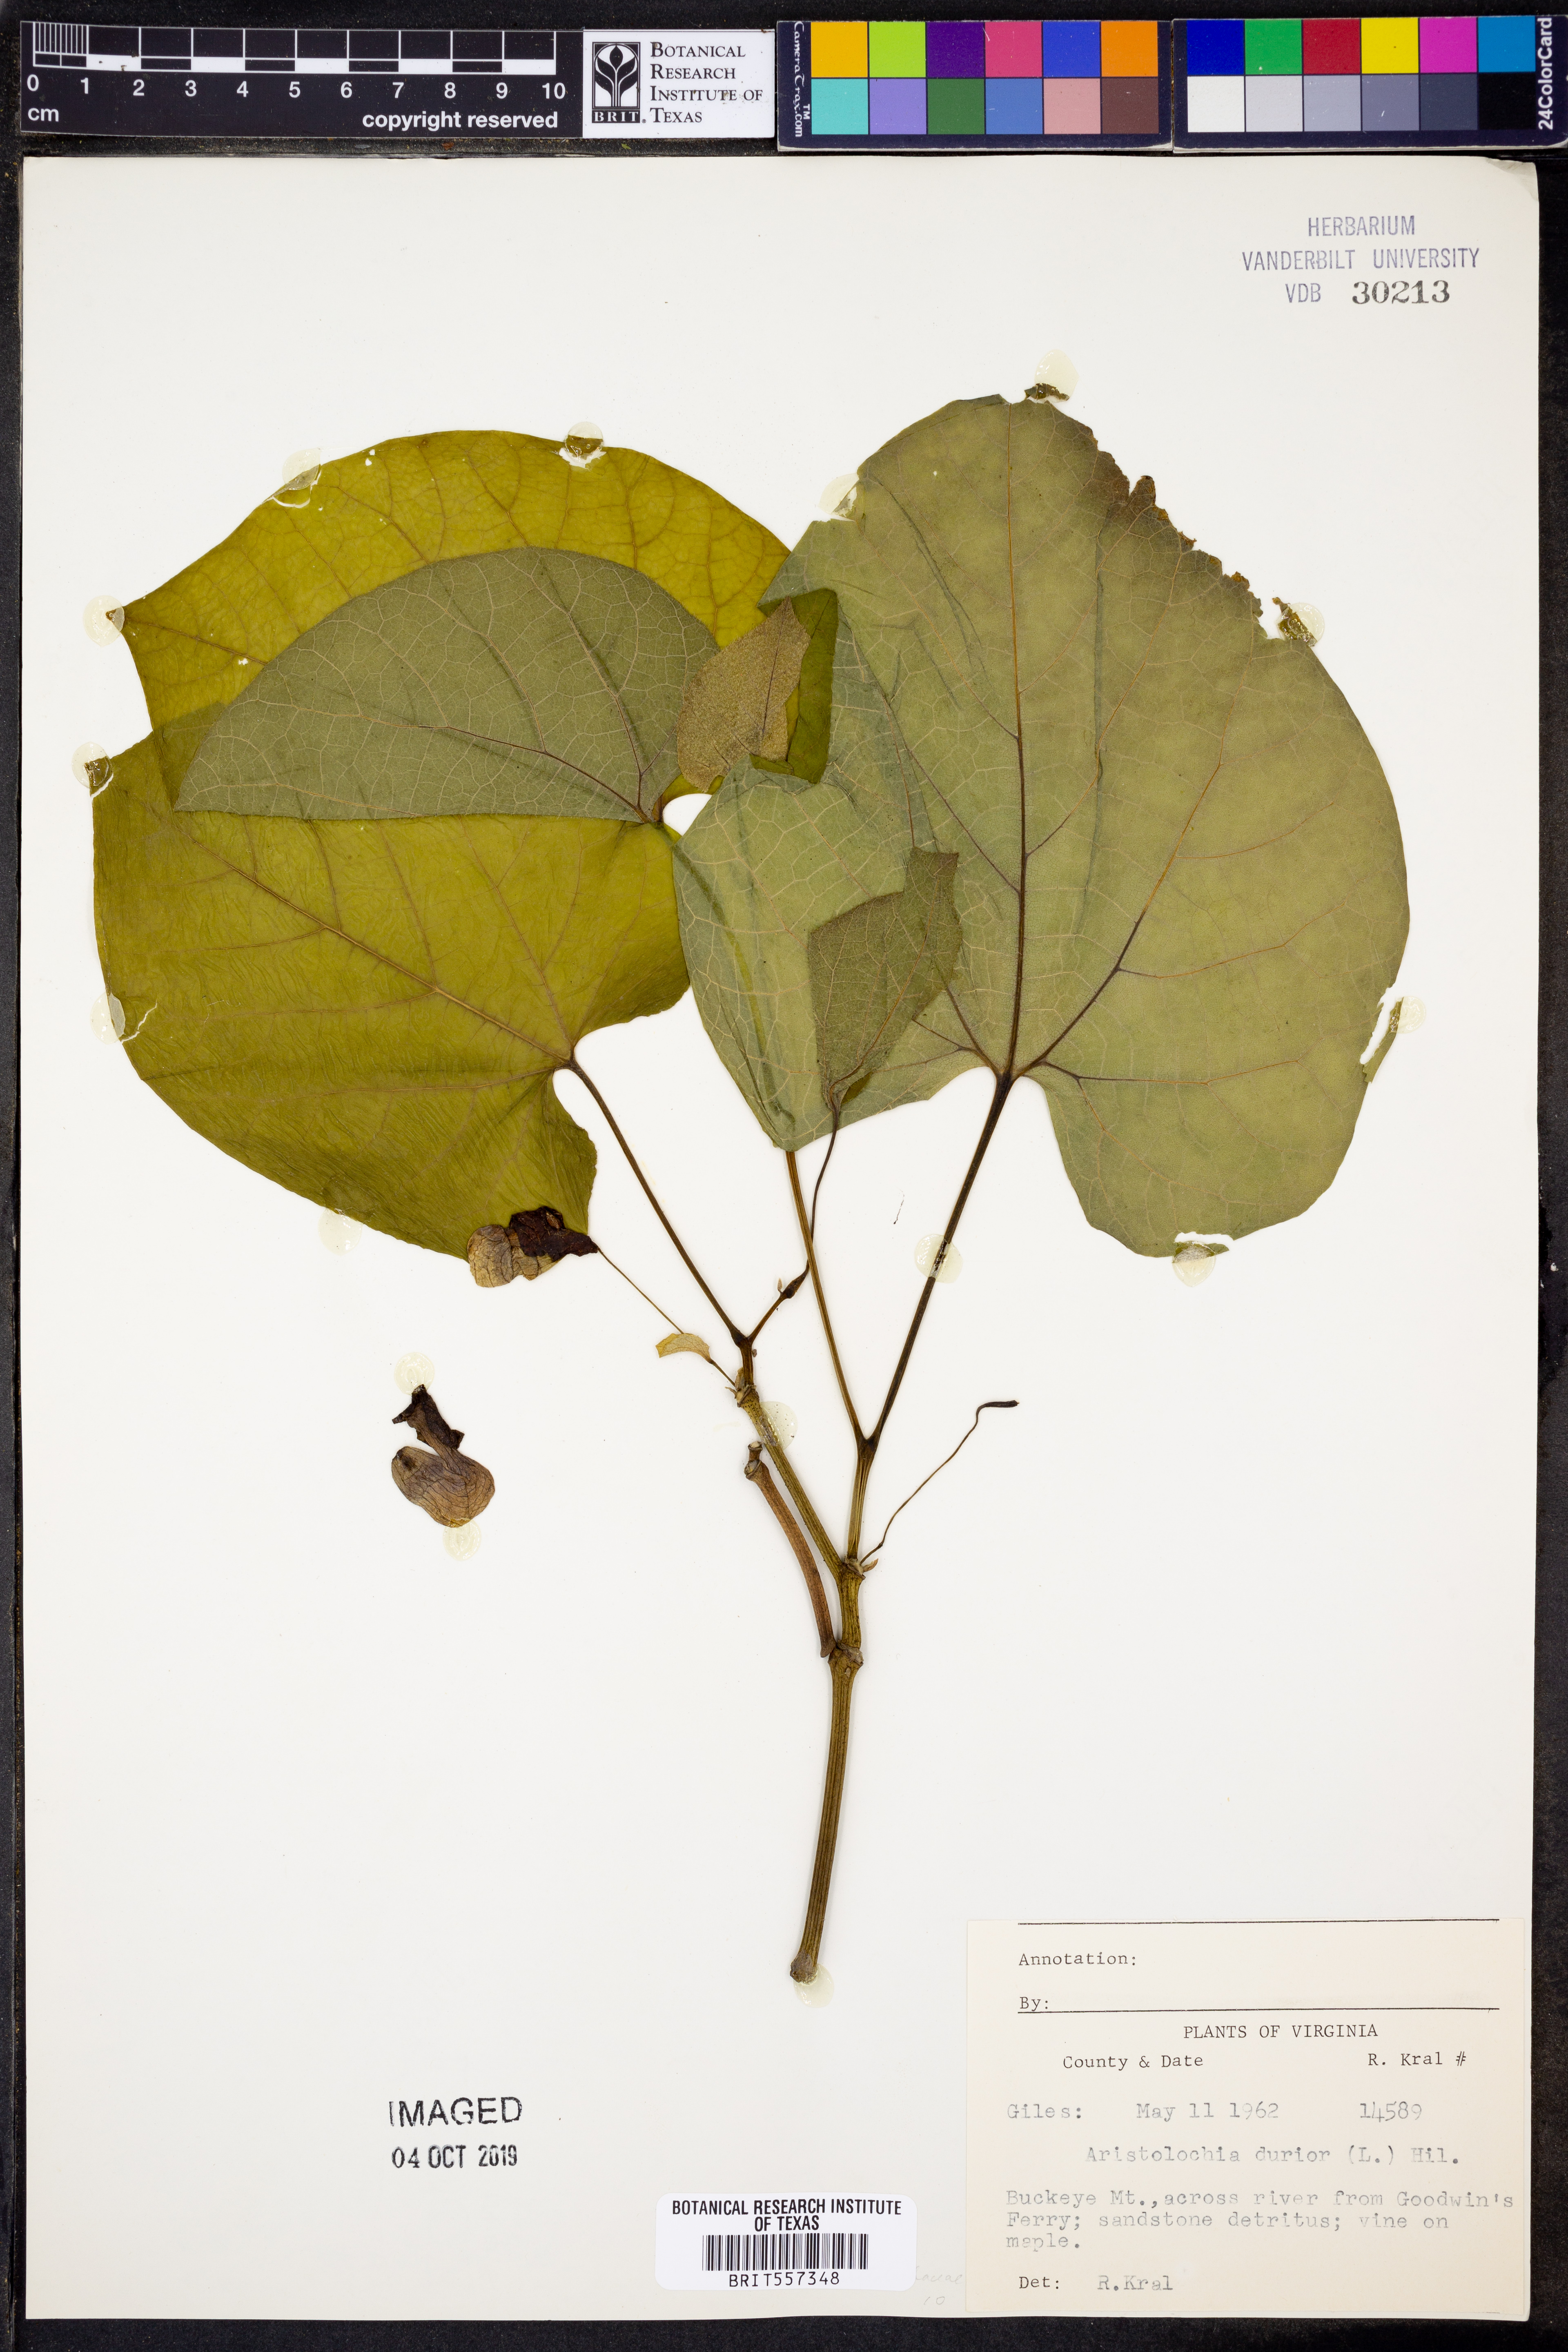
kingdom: Plantae
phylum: Tracheophyta
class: Magnoliopsida
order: Lamiales
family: Bignoniaceae
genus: Bignonia
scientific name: Bignonia capreolata
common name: Crossvine
